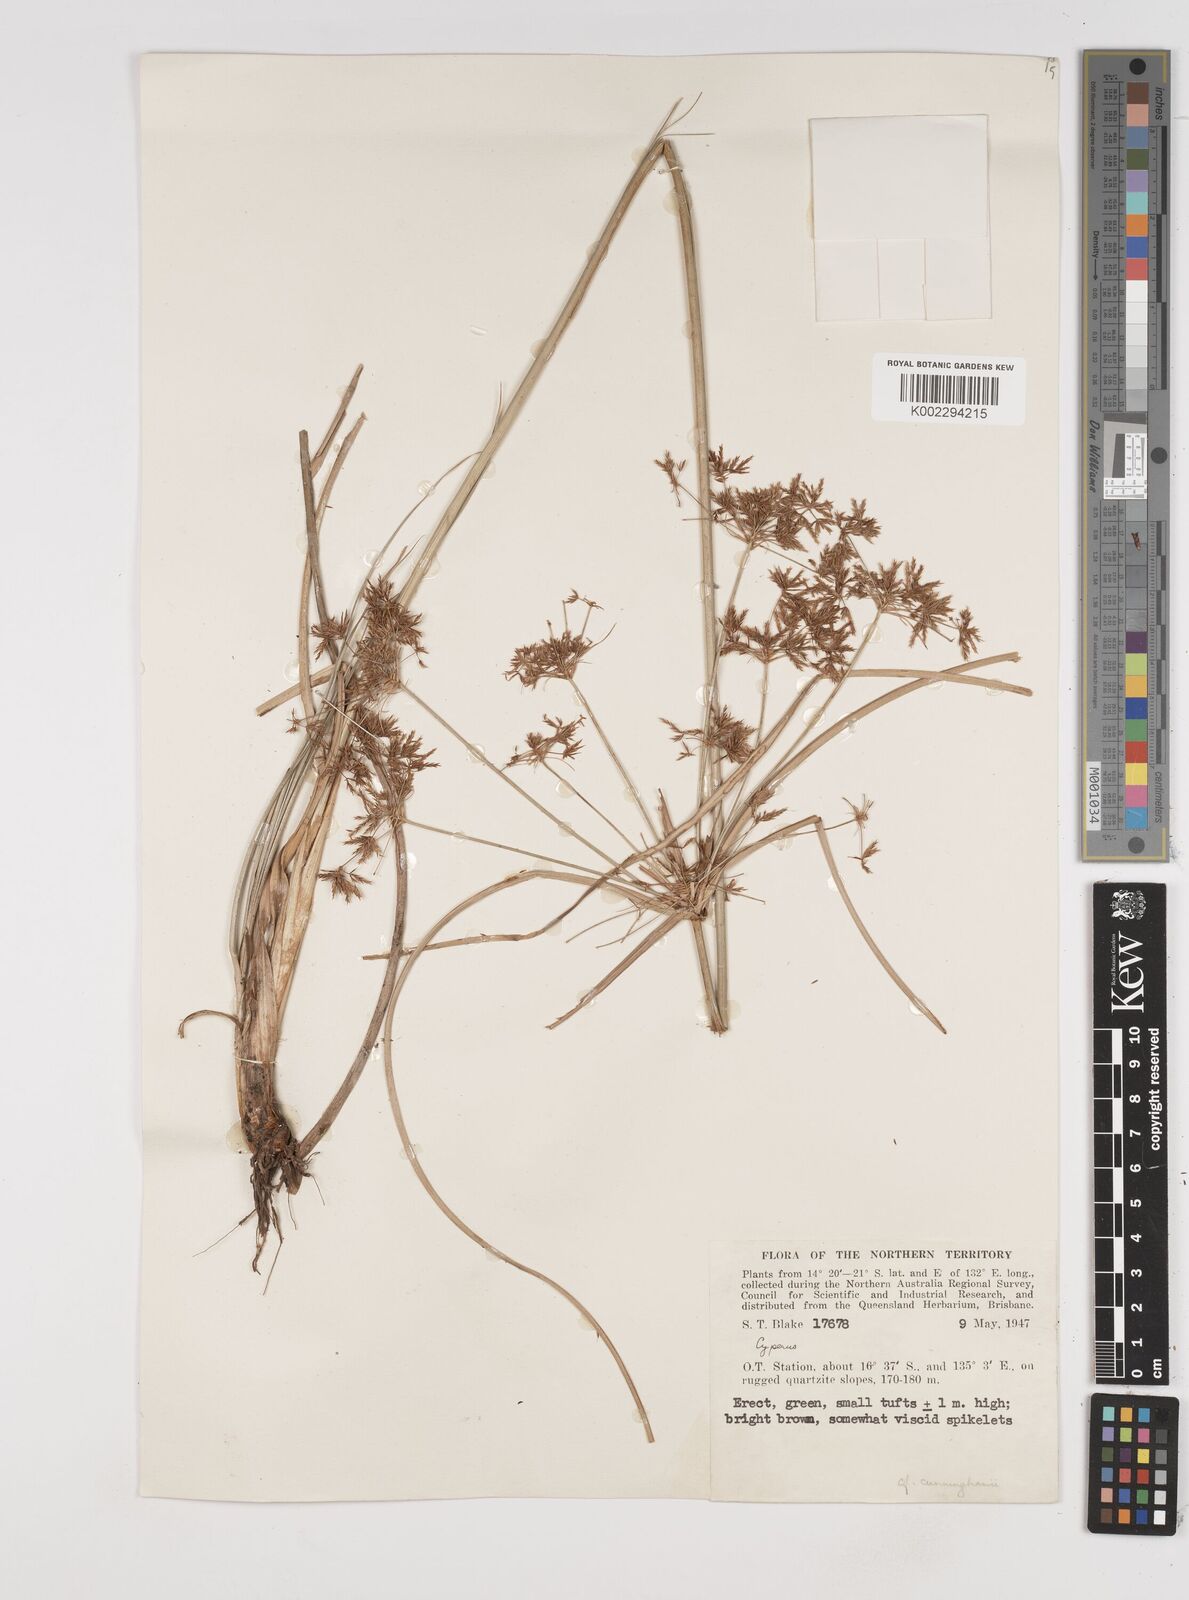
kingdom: Plantae
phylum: Tracheophyta
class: Liliopsida
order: Poales
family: Cyperaceae
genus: Cyperus
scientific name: Cyperus cunninghamii
